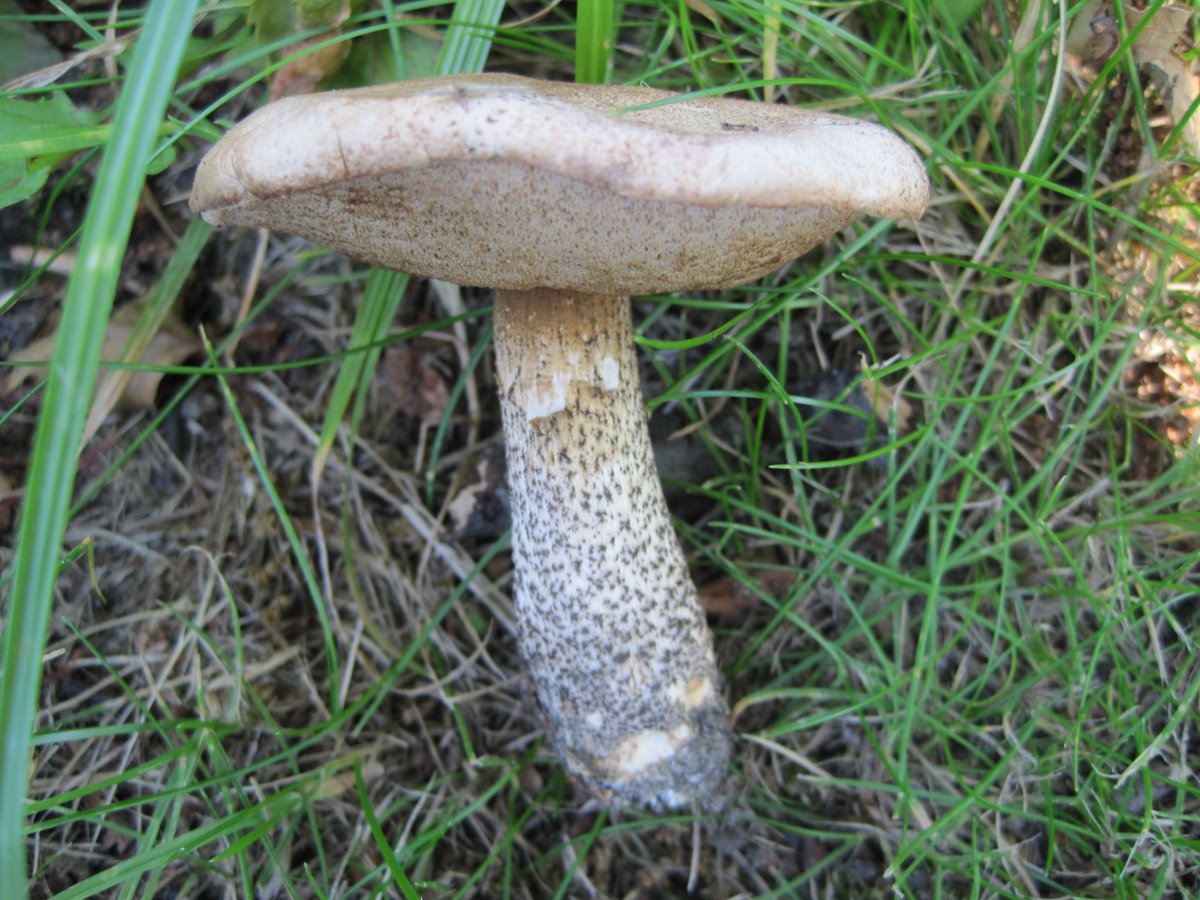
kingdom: Fungi
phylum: Basidiomycota
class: Agaricomycetes
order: Boletales
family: Boletaceae
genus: Leccinum
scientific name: Leccinum scabrum
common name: brun skælrørhat
